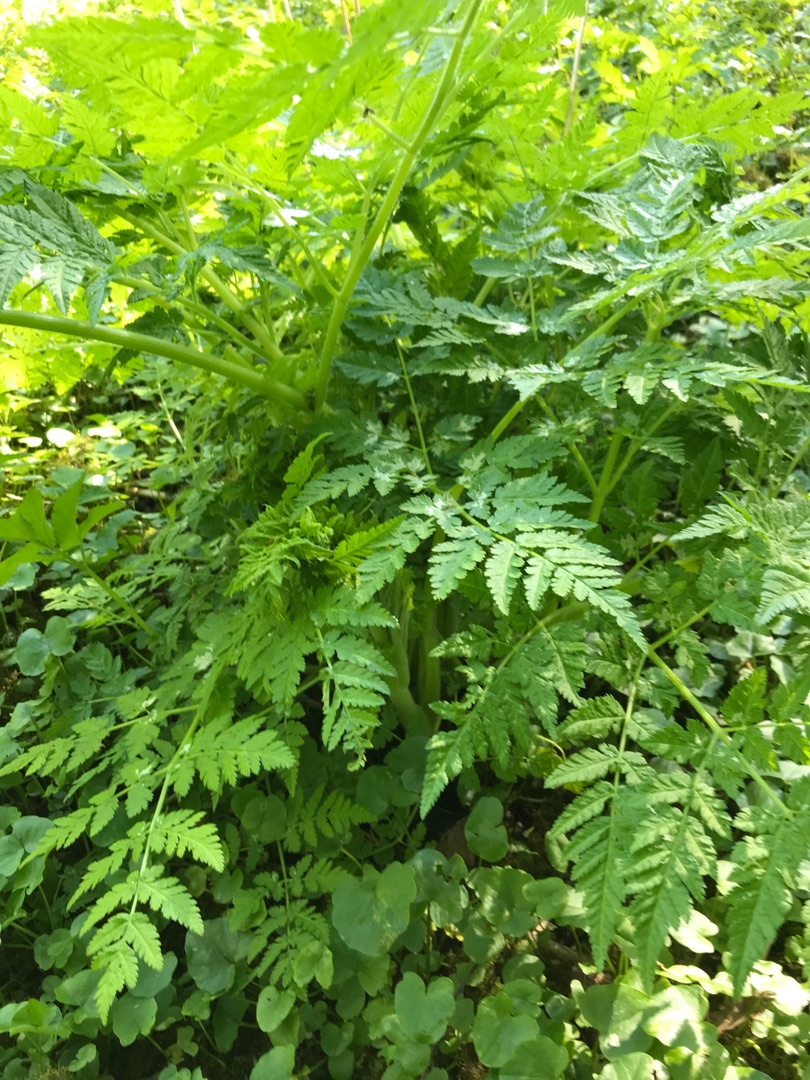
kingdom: Plantae
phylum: Tracheophyta
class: Magnoliopsida
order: Apiales
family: Apiaceae
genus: Myrrhis
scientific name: Myrrhis odorata
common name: Sødskærm
